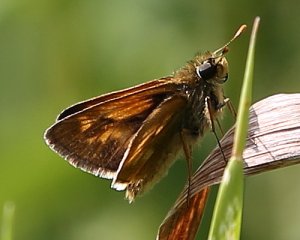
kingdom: Animalia
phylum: Arthropoda
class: Insecta
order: Lepidoptera
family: Hesperiidae
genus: Polites
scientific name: Polites
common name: Long Dash Skipper
